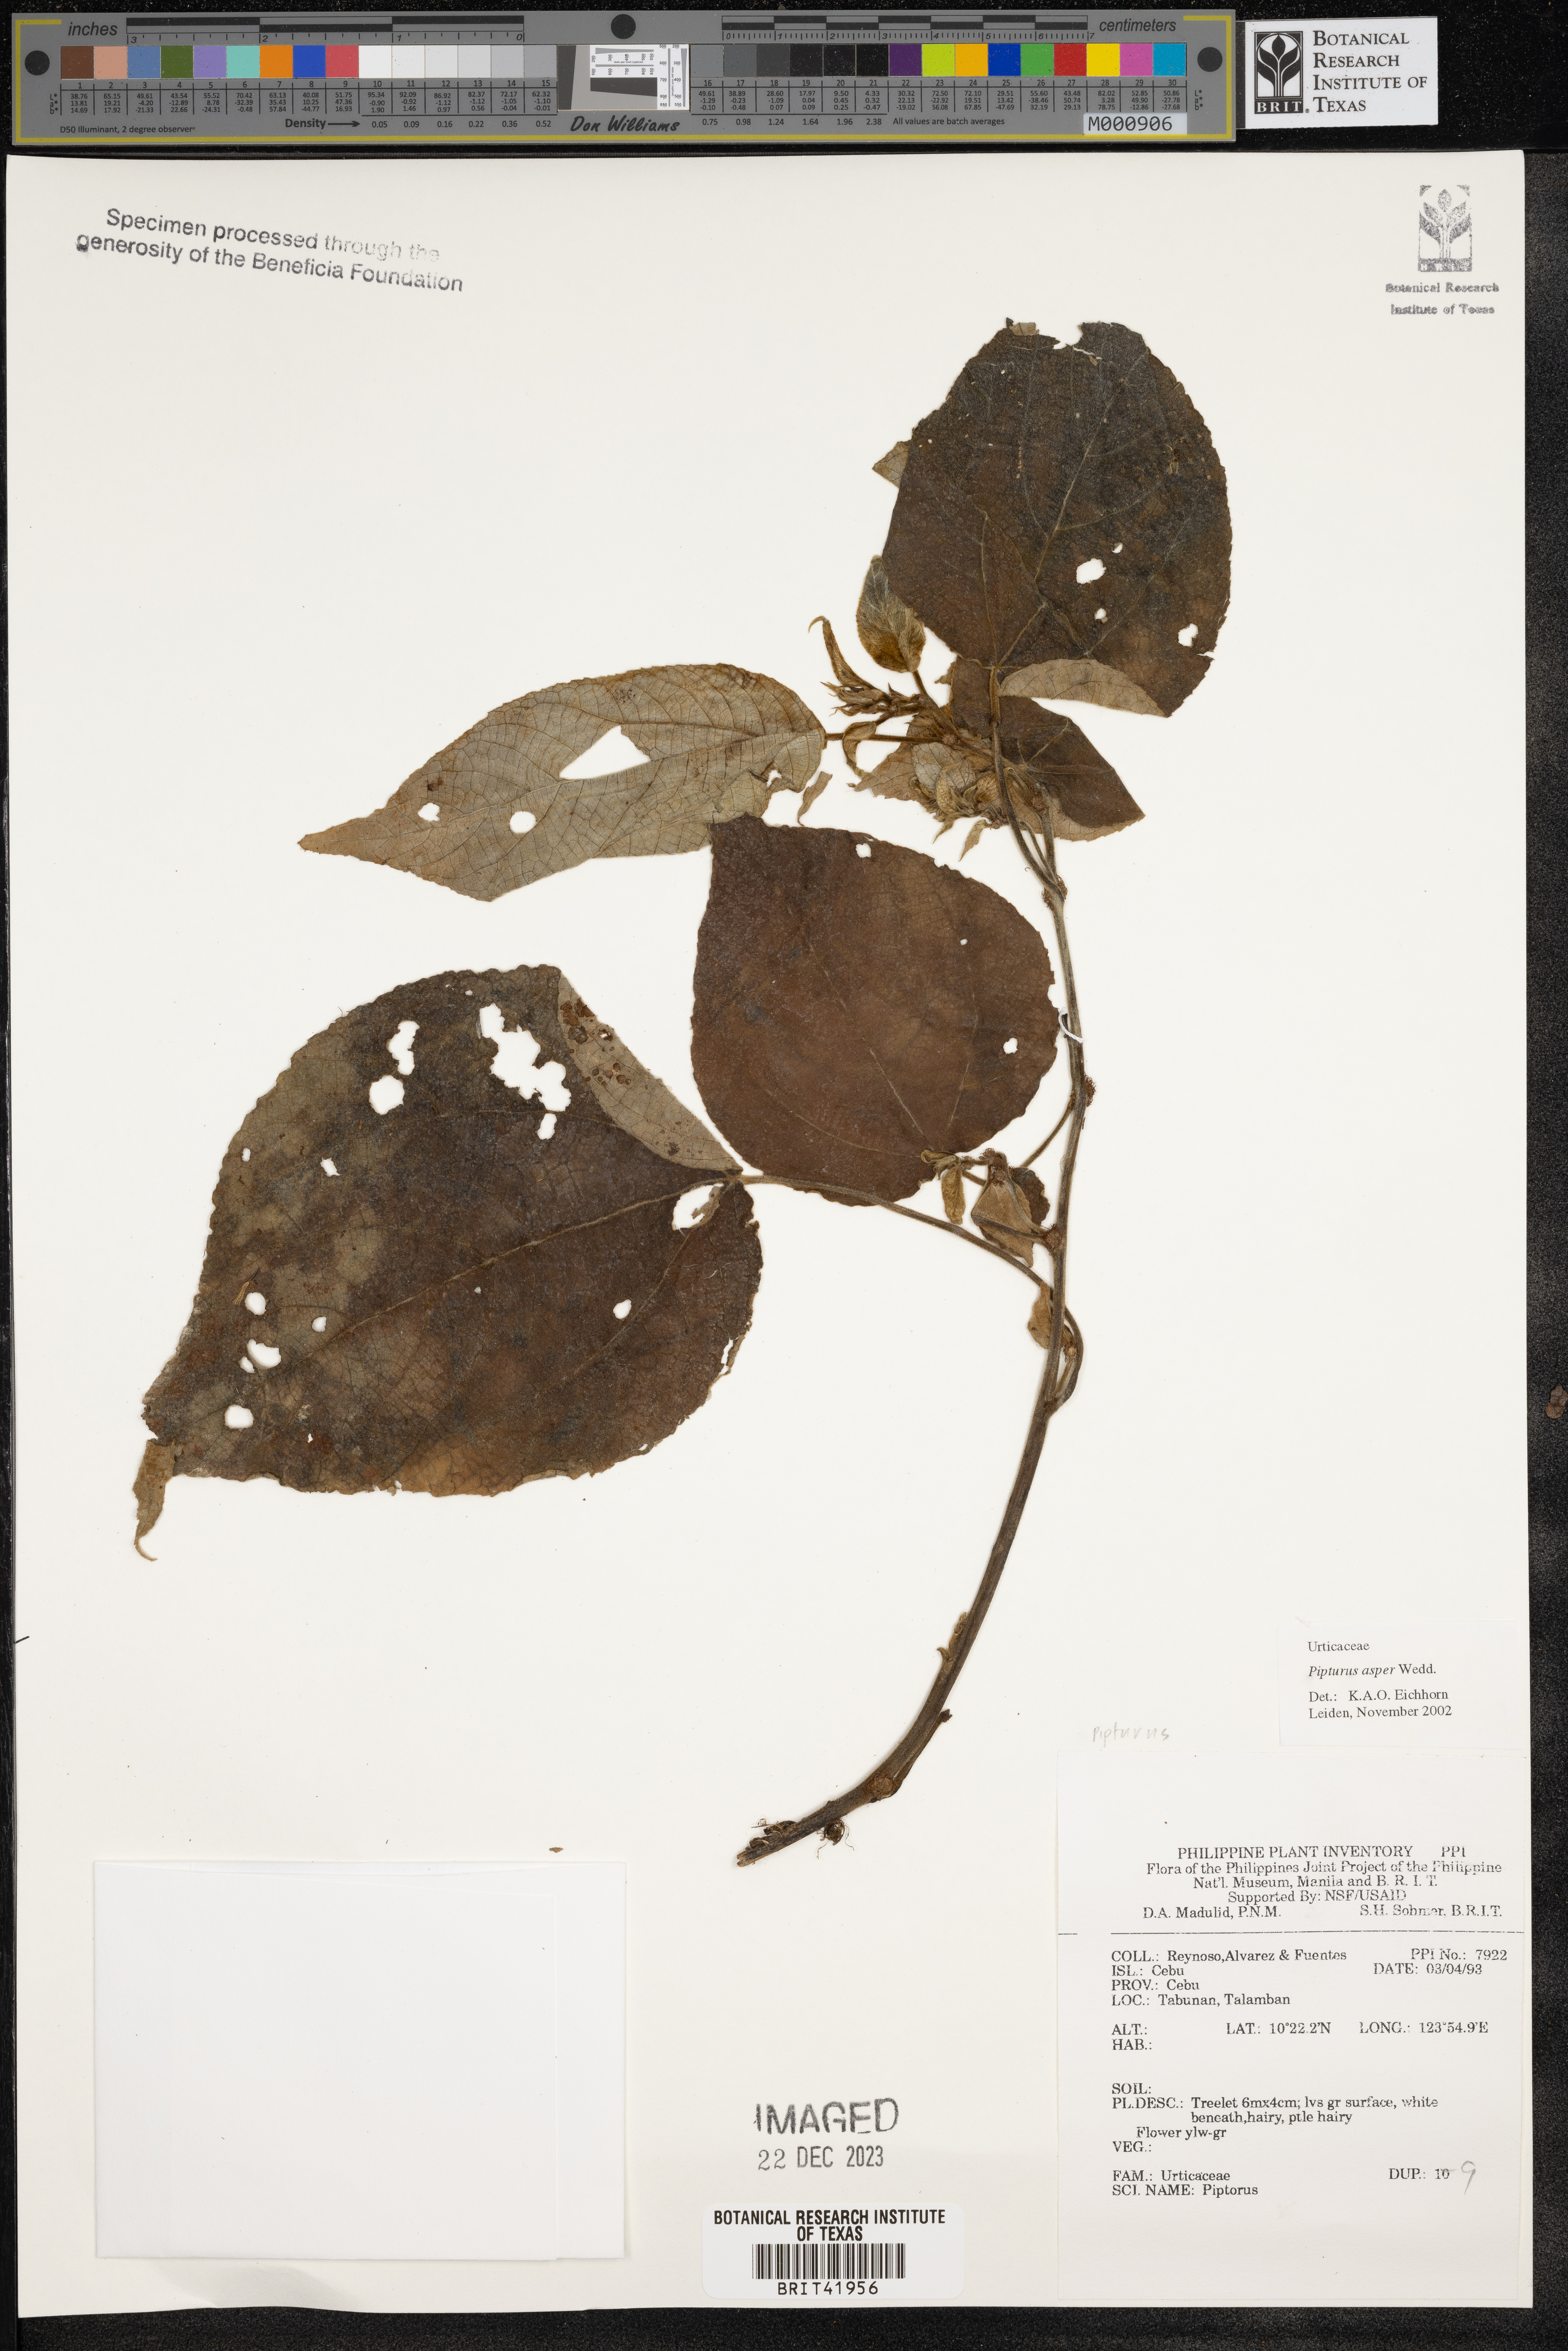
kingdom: Plantae
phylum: Tracheophyta
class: Magnoliopsida
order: Rosales
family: Urticaceae
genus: Pipturus
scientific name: Pipturus arborescens
